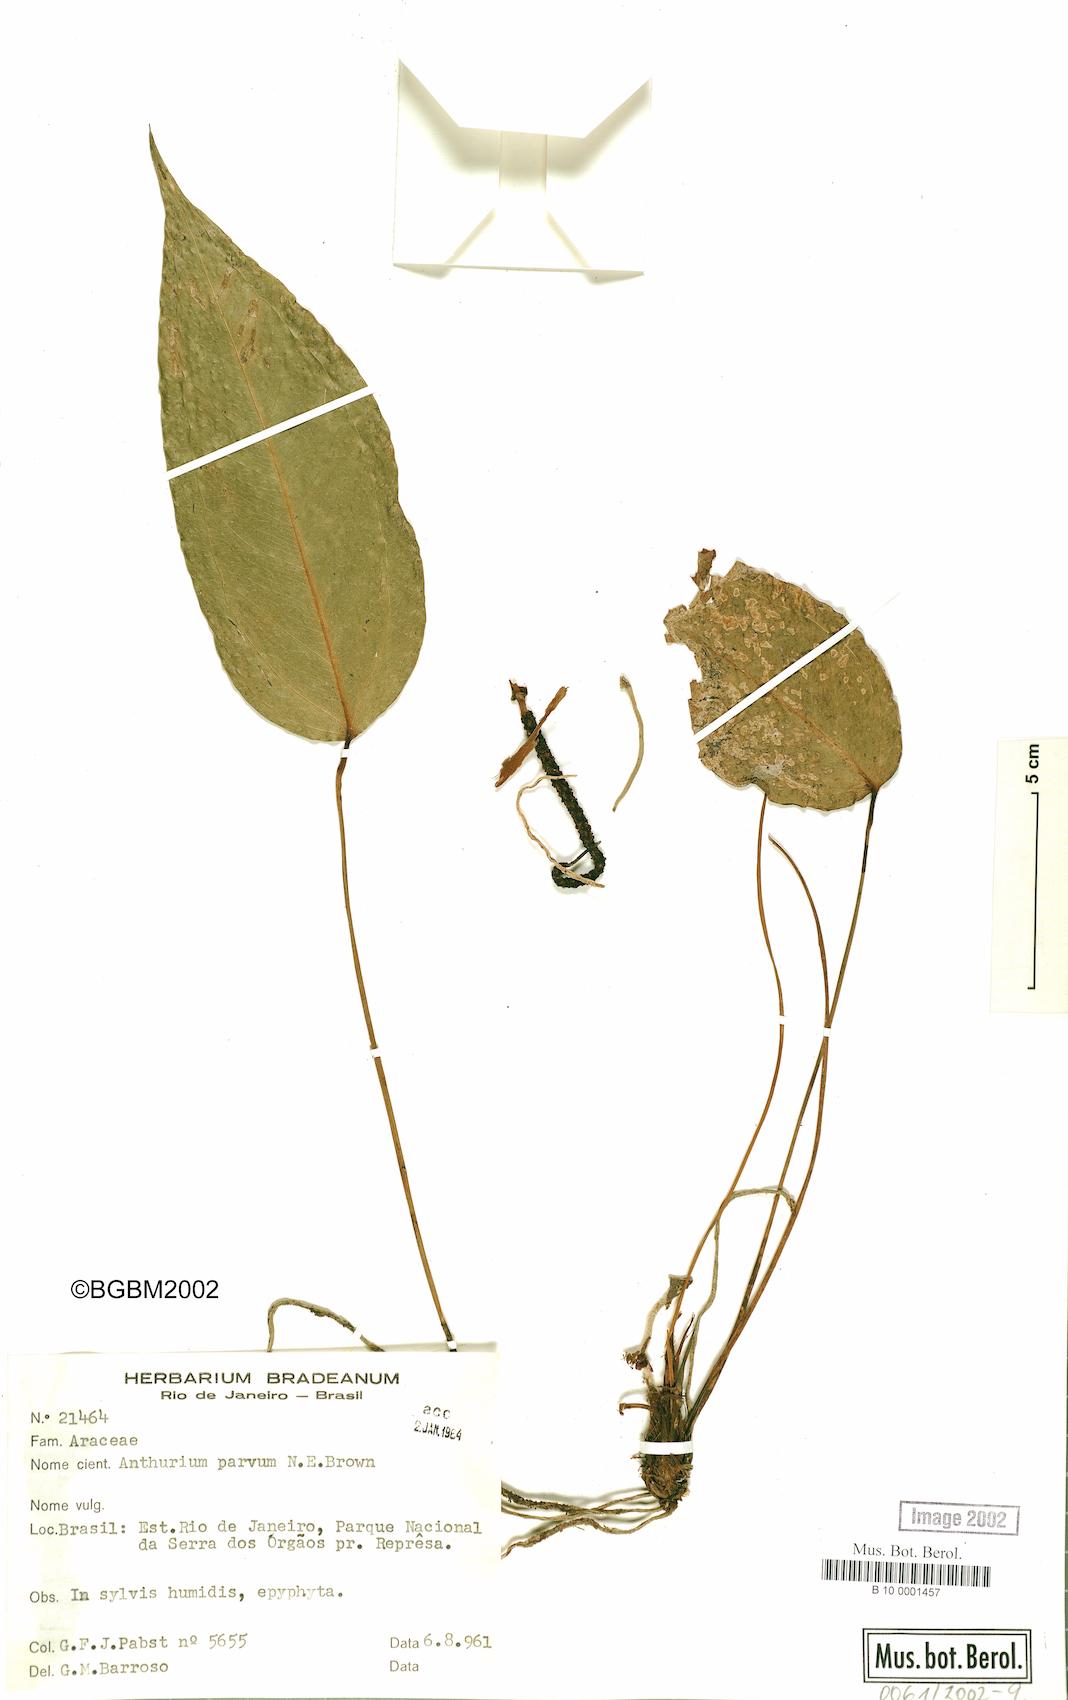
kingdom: Plantae
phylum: Tracheophyta
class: Liliopsida
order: Alismatales
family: Araceae
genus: Anthurium
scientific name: Anthurium parvum
